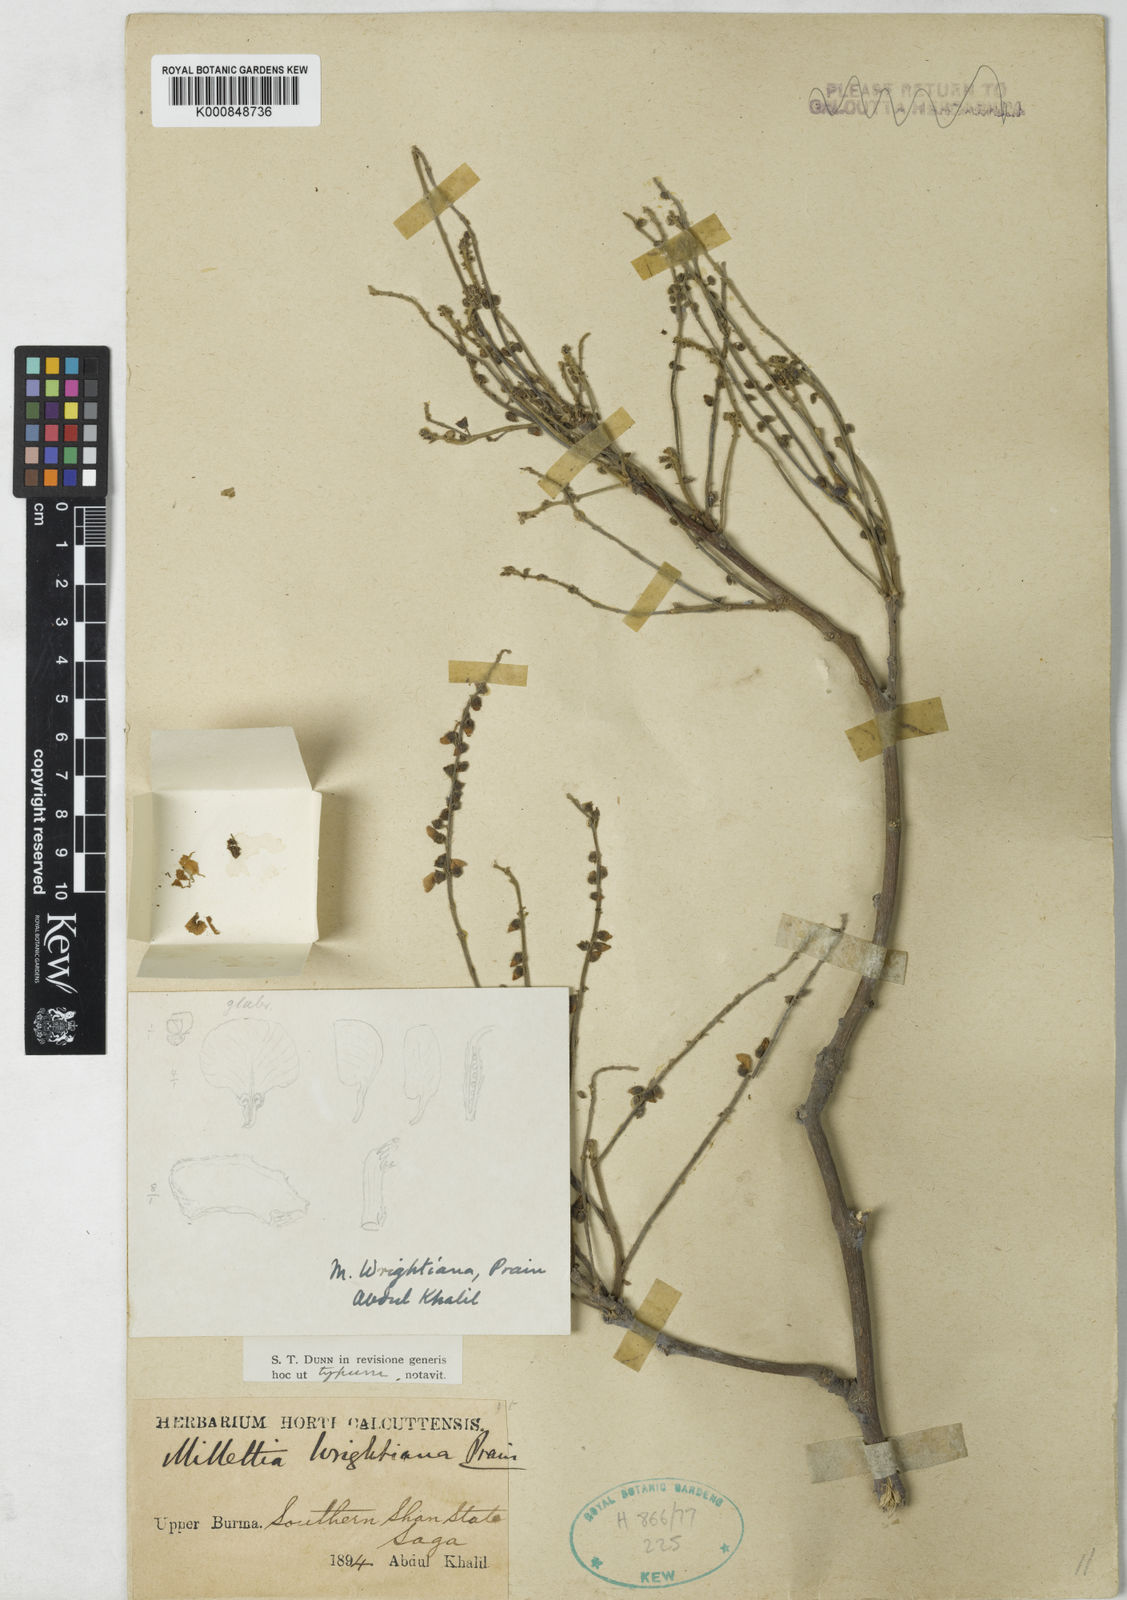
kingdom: Plantae
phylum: Tracheophyta
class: Magnoliopsida
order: Fabales
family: Fabaceae
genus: Millettia
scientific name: Millettia xylocarpa
